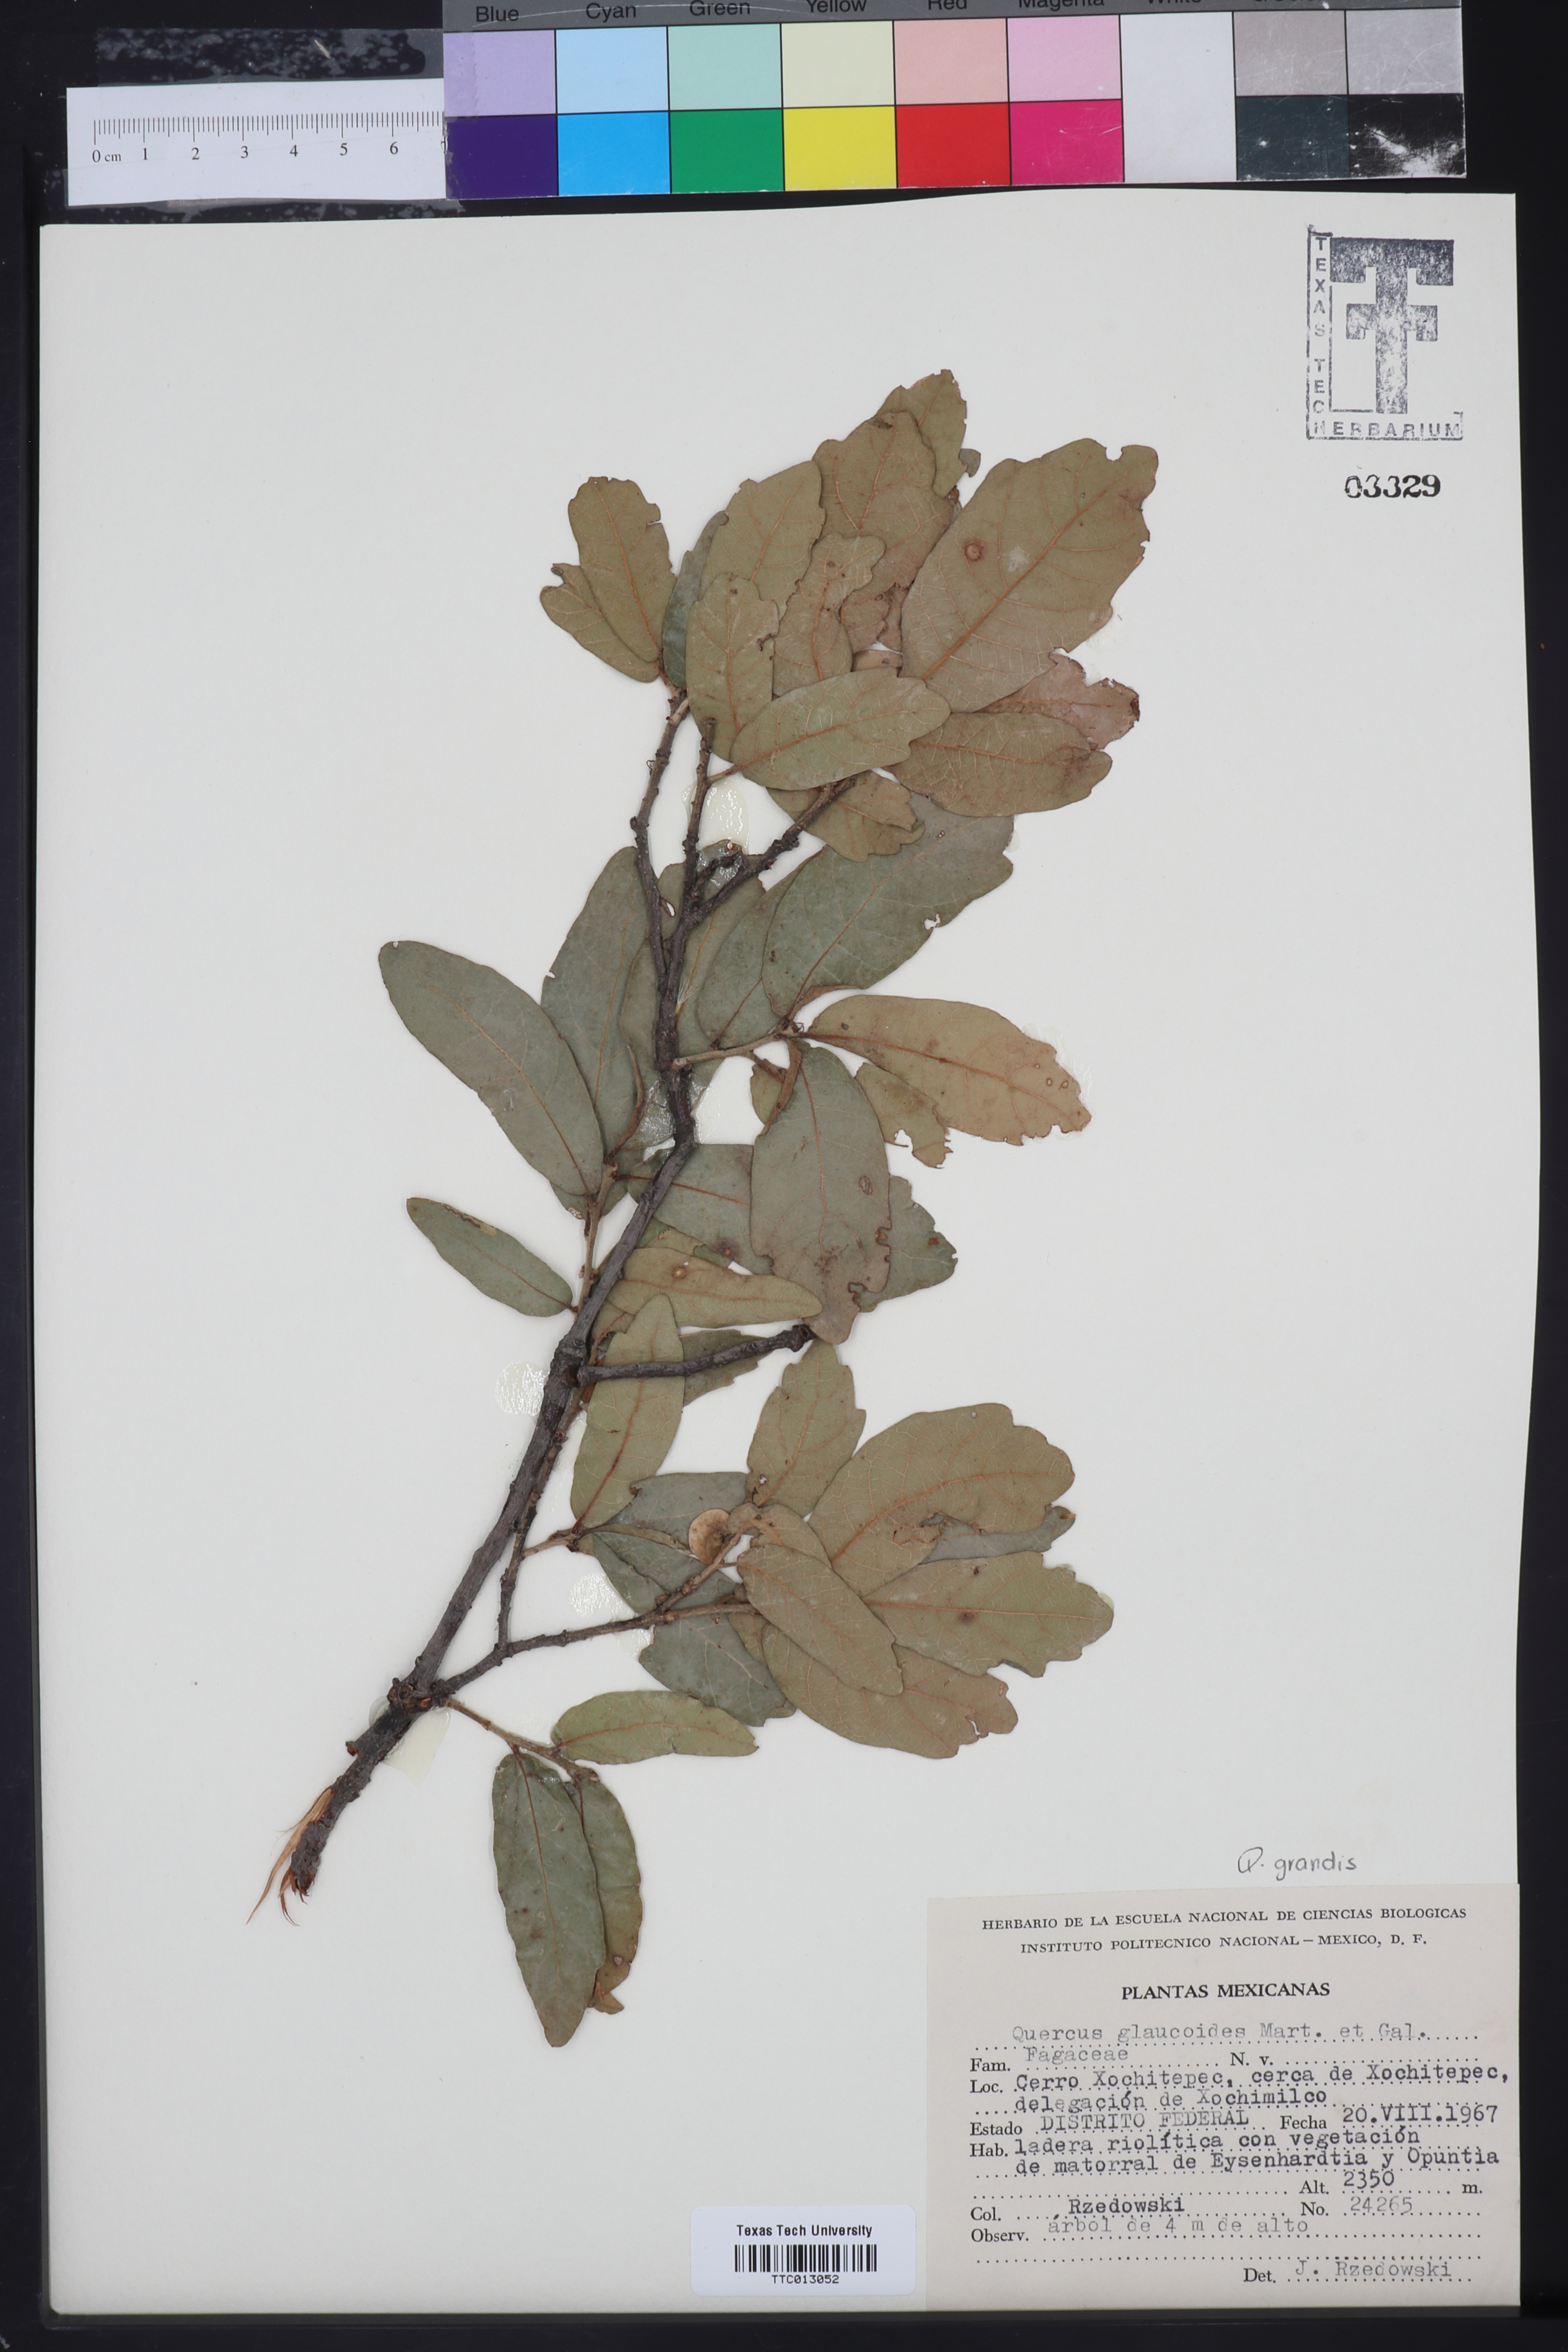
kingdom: Plantae
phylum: Tracheophyta
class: Magnoliopsida
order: Fagales
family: Fagaceae
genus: Quercus
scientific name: Quercus glaucoides
